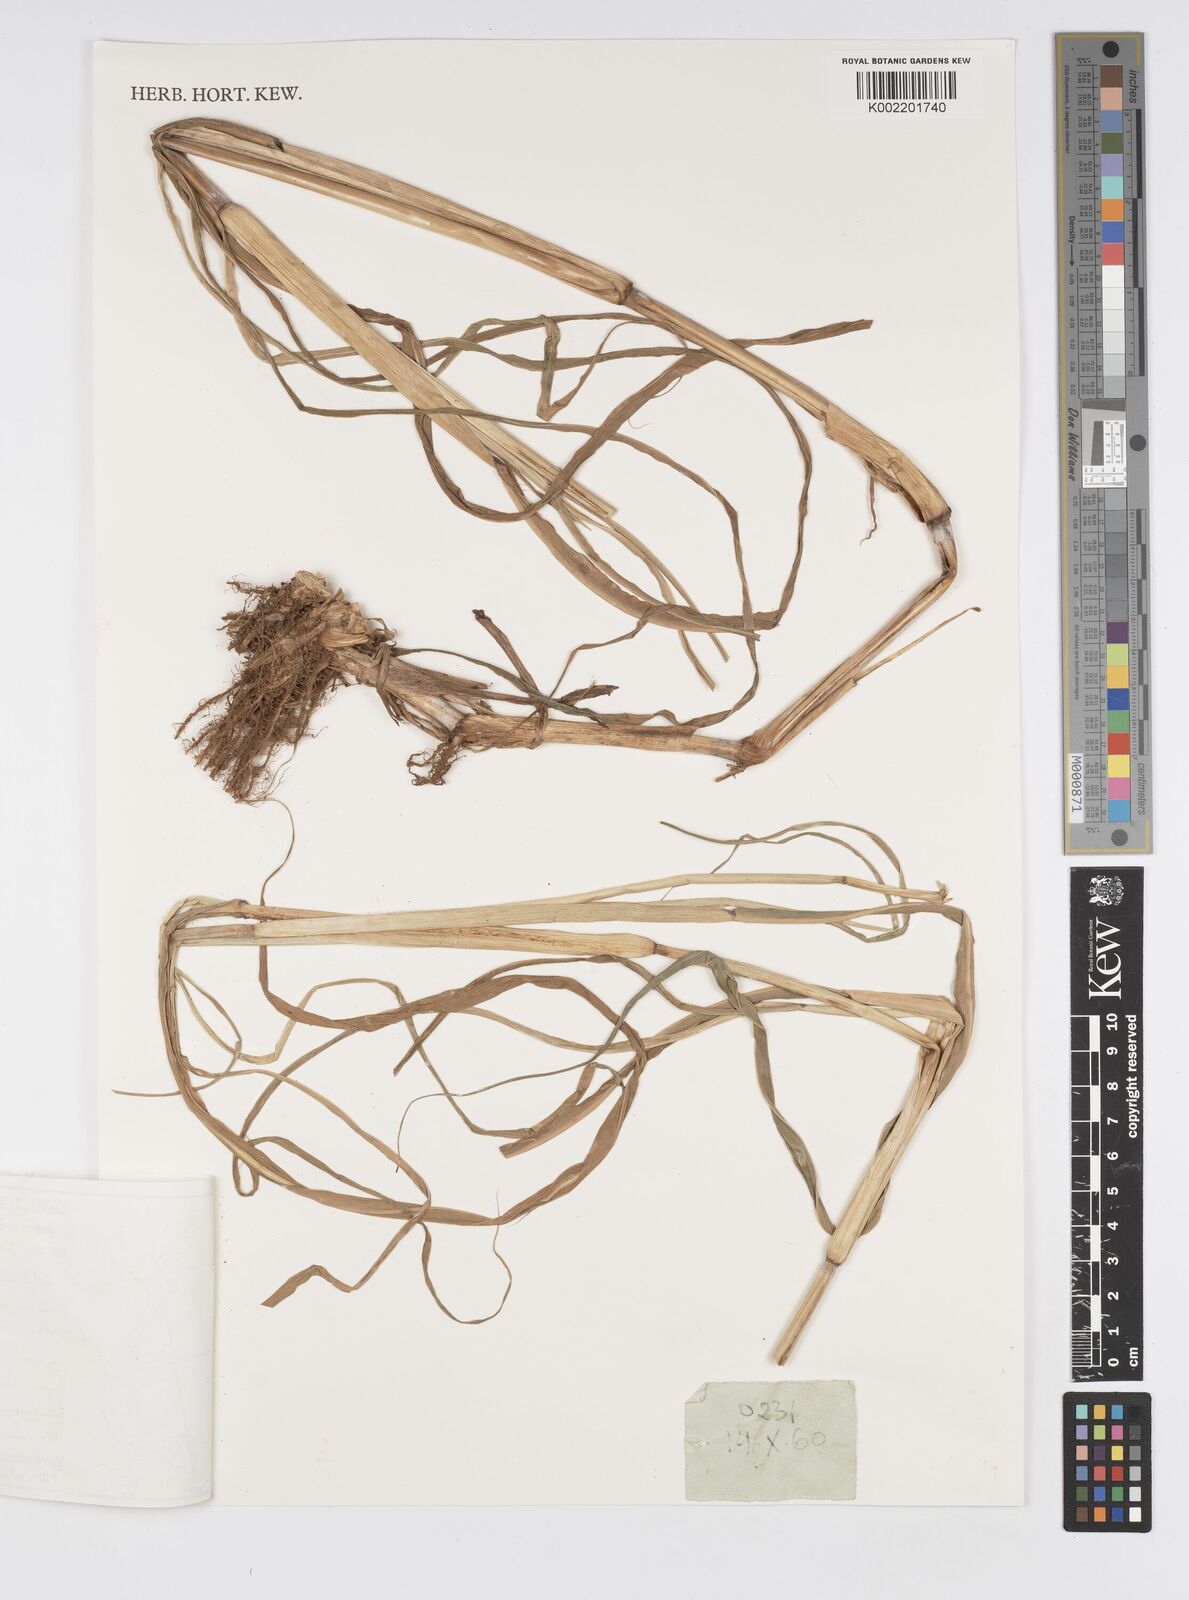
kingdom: Plantae
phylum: Tracheophyta
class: Liliopsida
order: Poales
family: Poaceae
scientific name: Poaceae
